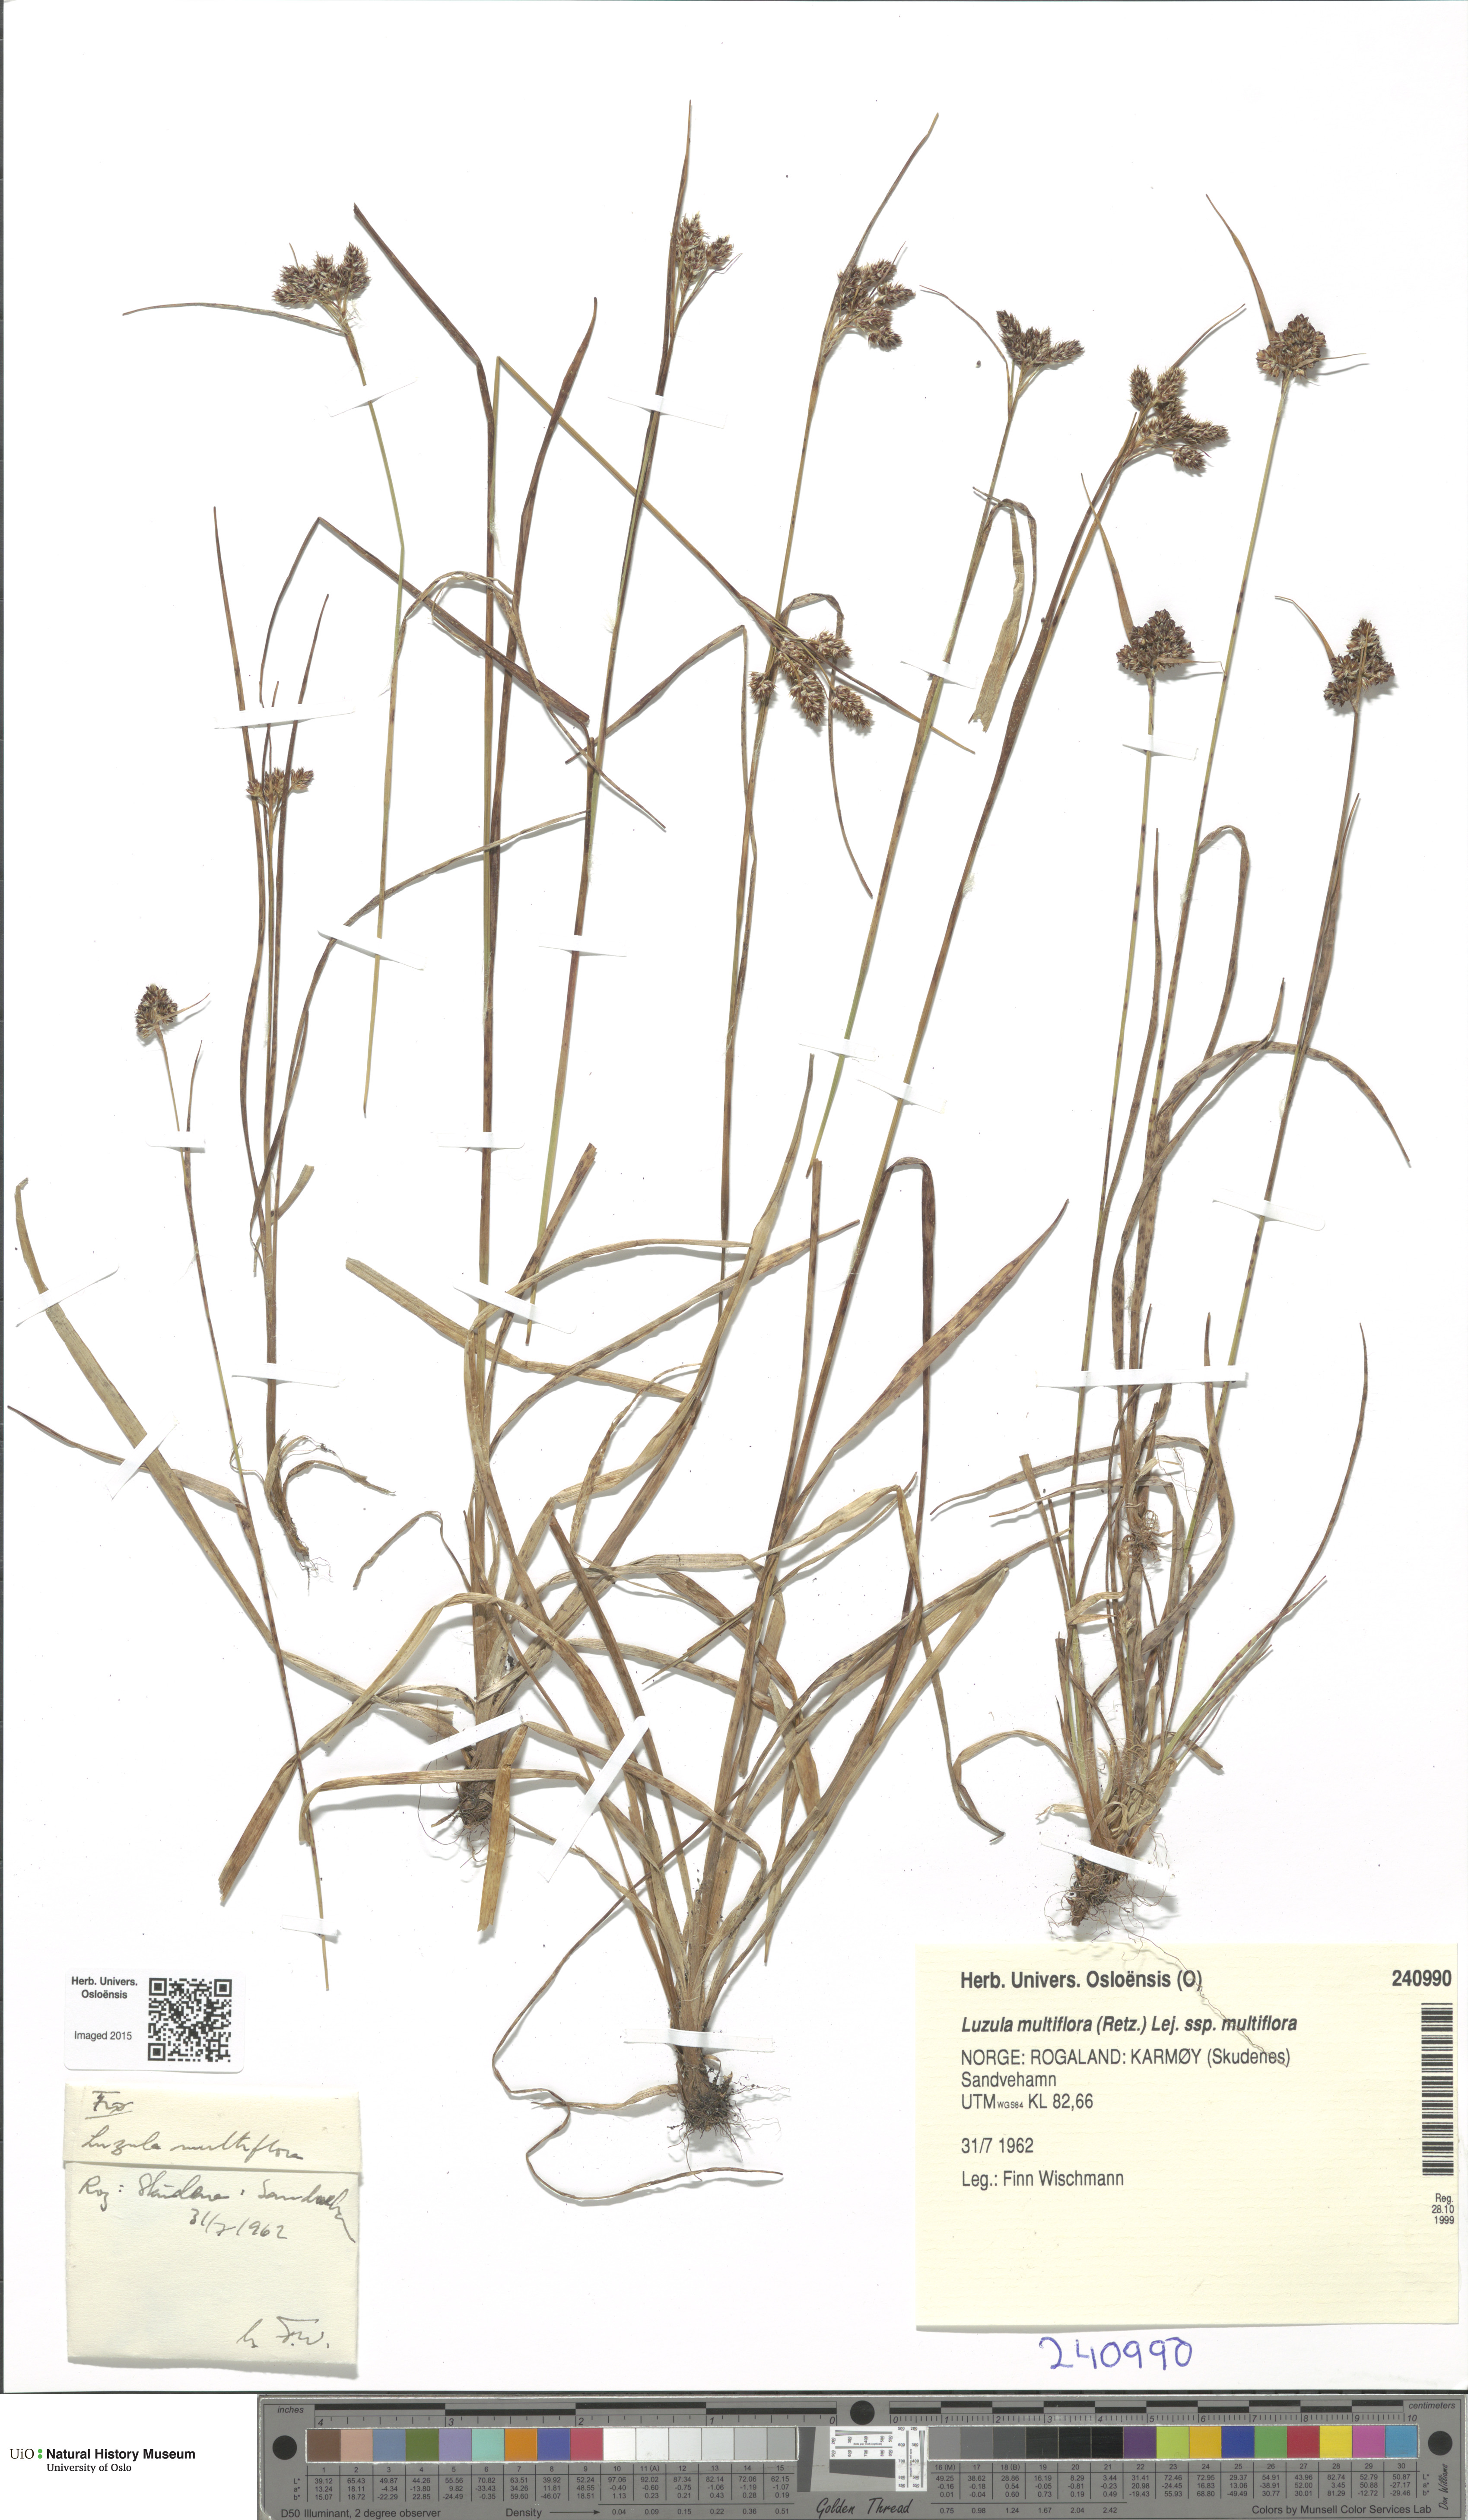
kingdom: Plantae
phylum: Tracheophyta
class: Liliopsida
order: Poales
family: Juncaceae
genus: Luzula
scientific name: Luzula multiflora
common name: Heath wood-rush
